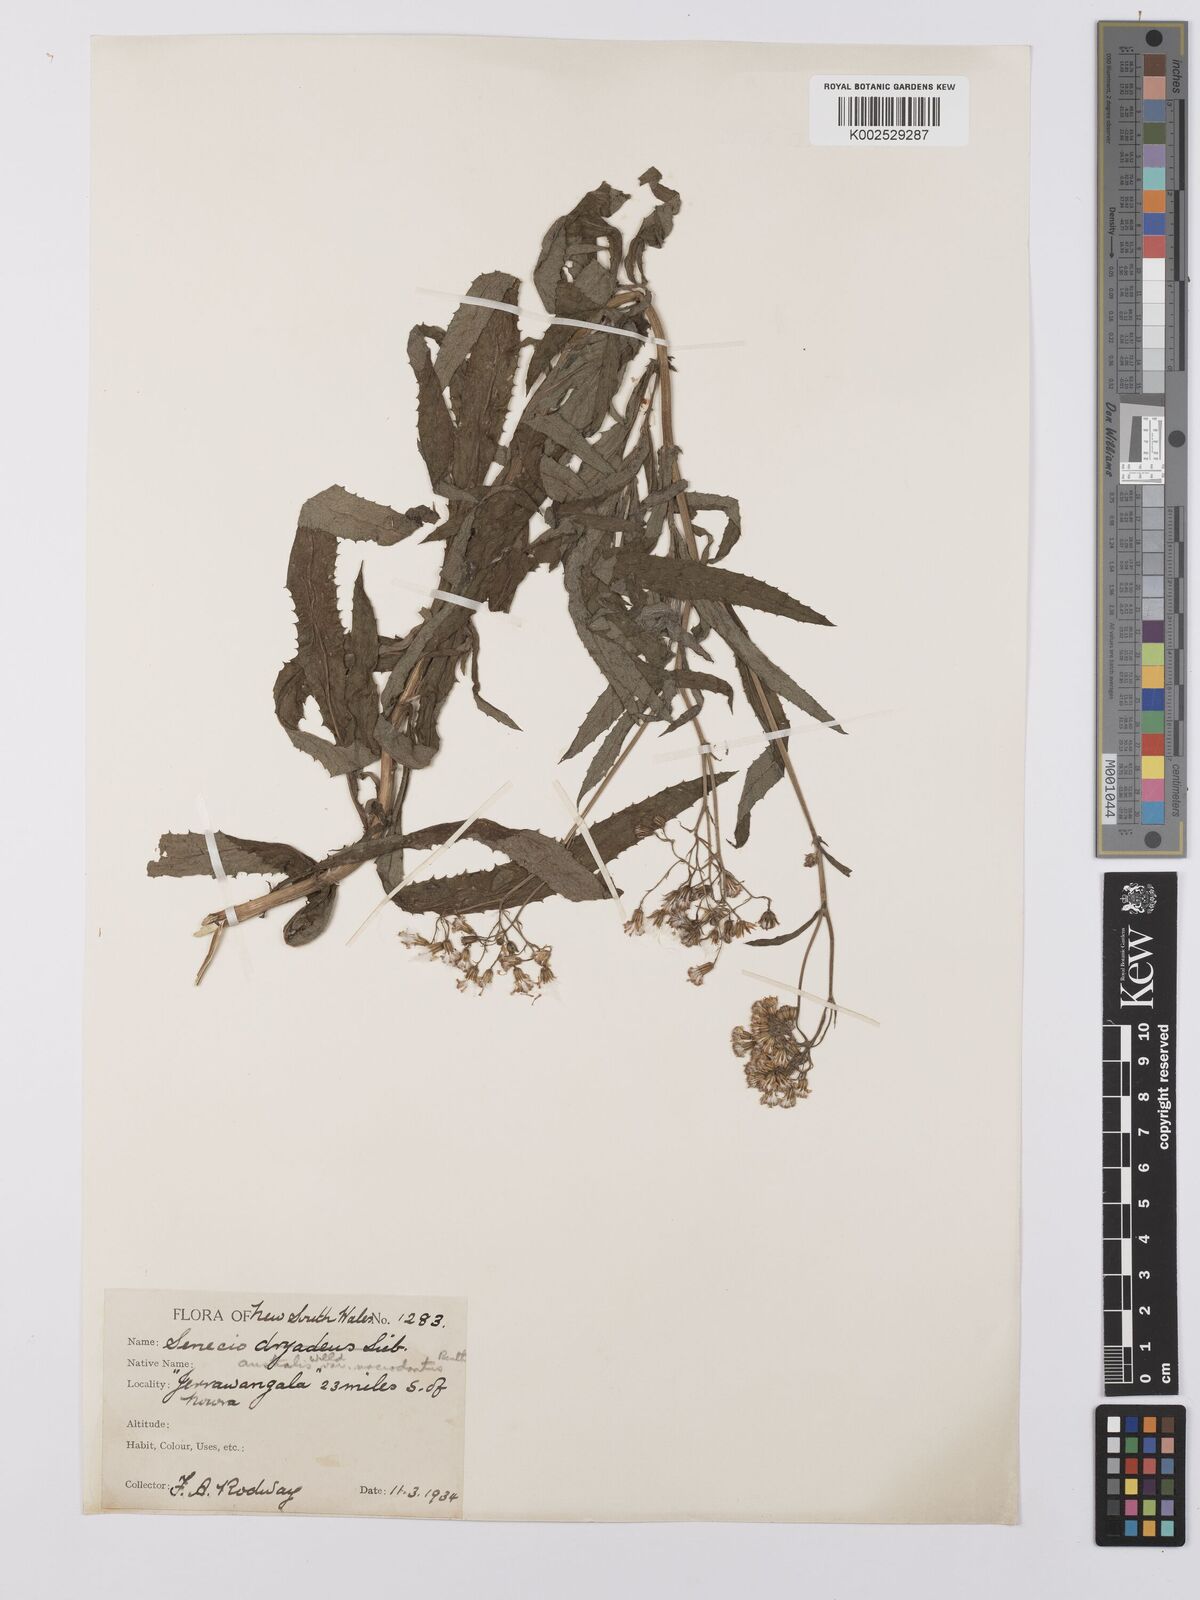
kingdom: Plantae
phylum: Tracheophyta
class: Magnoliopsida
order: Asterales
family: Asteraceae
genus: Senecio
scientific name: Senecio
